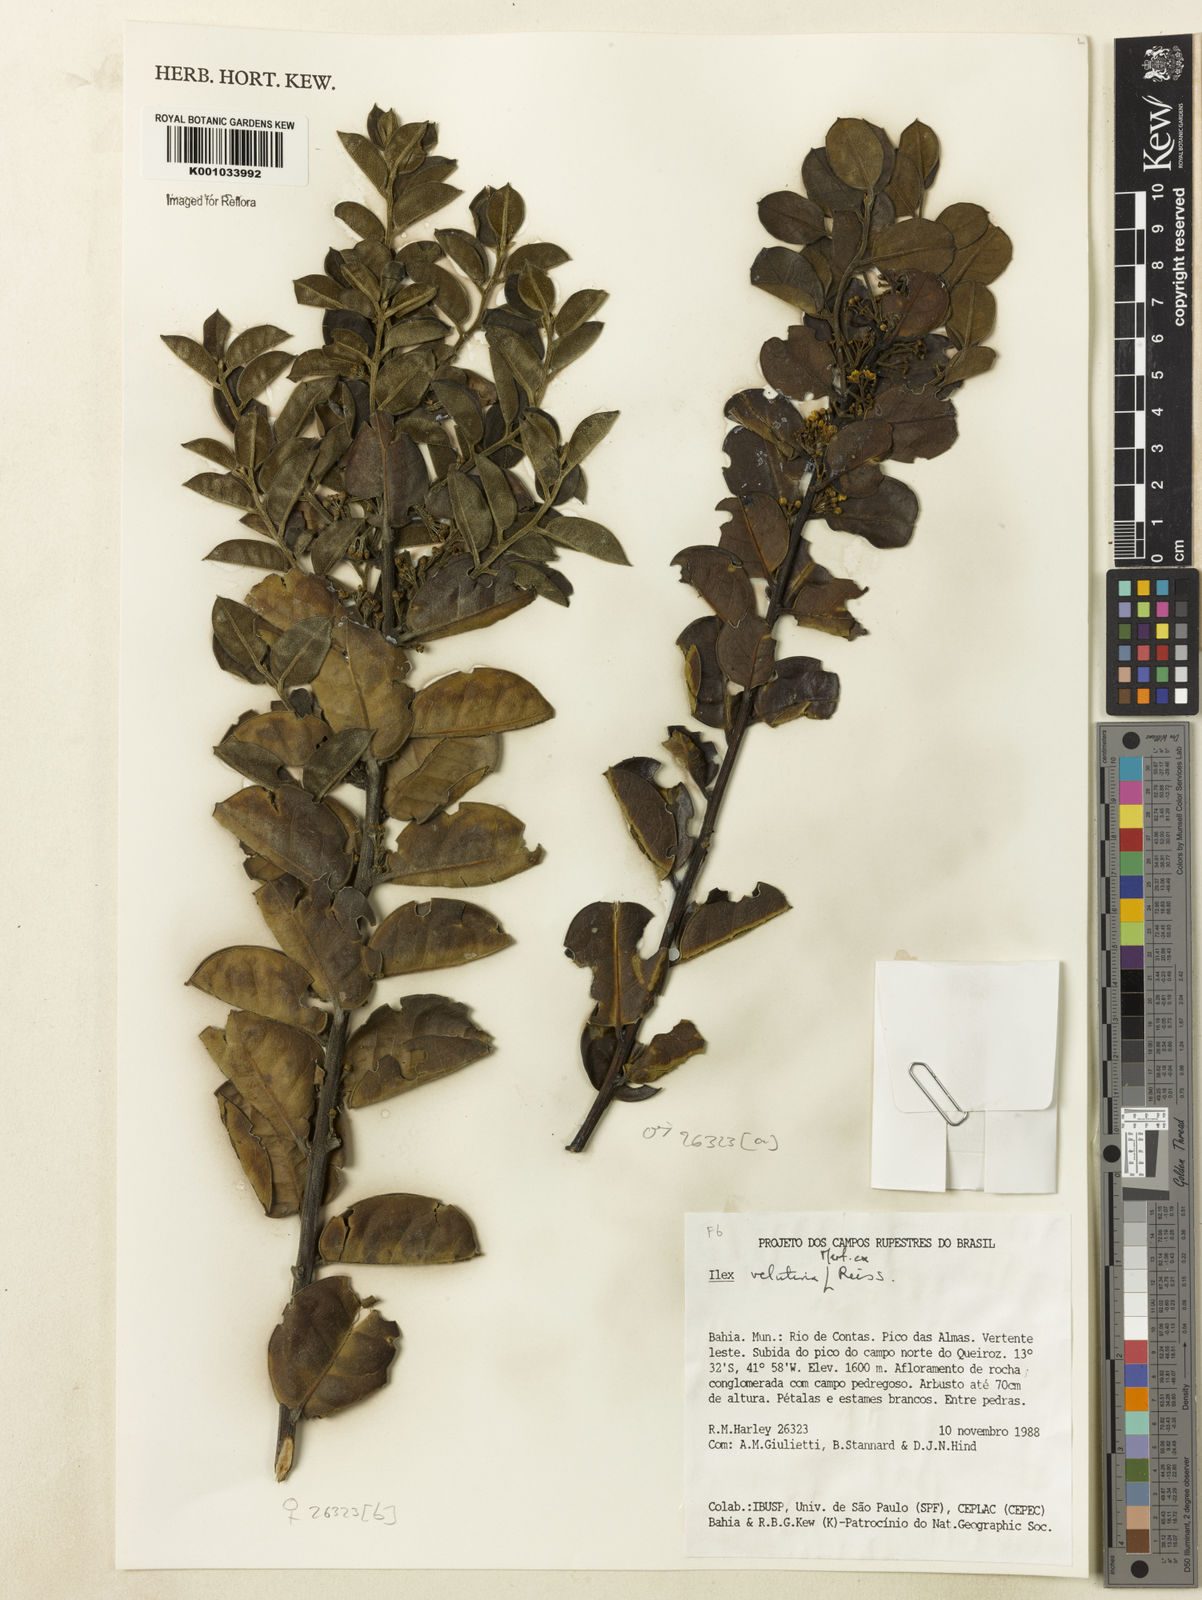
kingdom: Plantae
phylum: Tracheophyta
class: Magnoliopsida
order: Aquifoliales
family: Aquifoliaceae
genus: Ilex
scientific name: Ilex velutina
